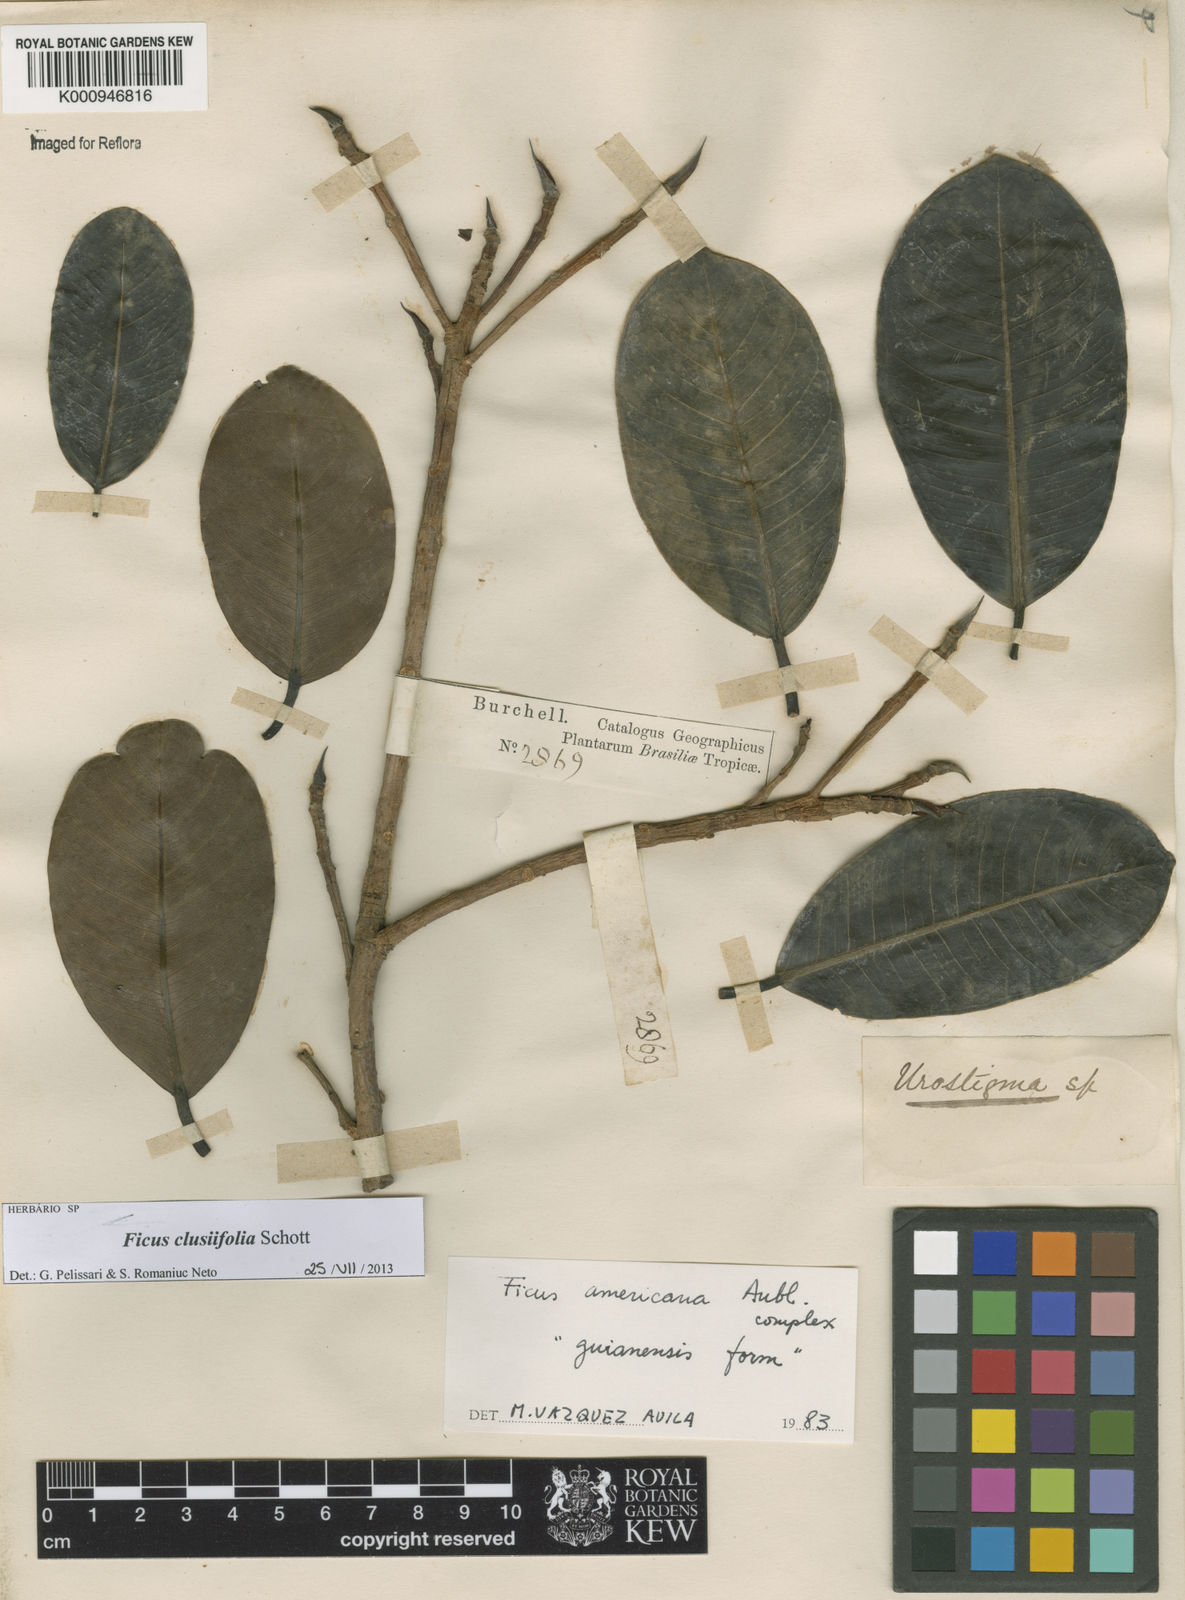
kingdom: Plantae
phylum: Tracheophyta
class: Magnoliopsida
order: Rosales
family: Moraceae
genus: Ficus
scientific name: Ficus americana
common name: Jamaican cherry fig
